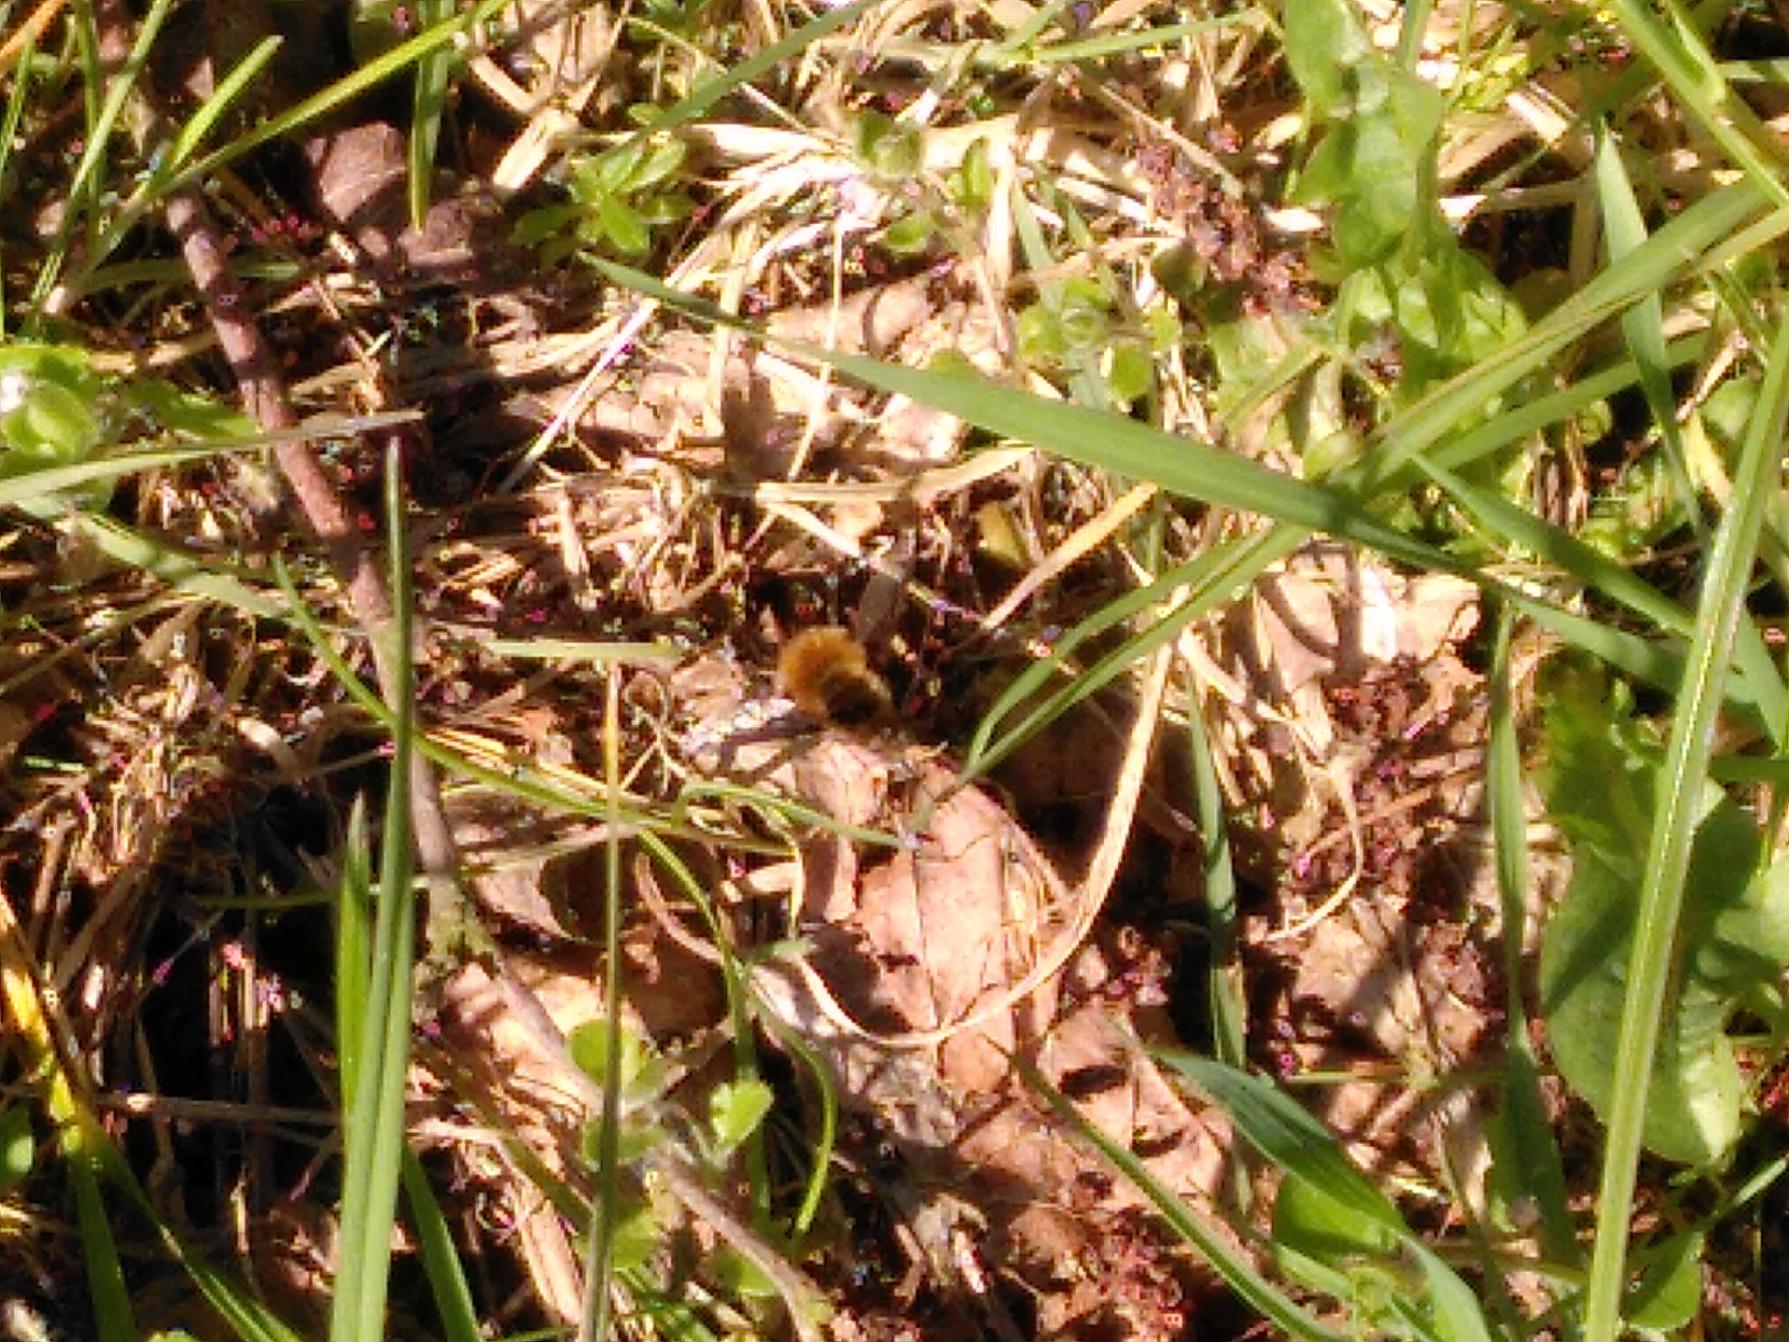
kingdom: Animalia
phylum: Arthropoda
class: Insecta
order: Diptera
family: Bombyliidae
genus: Bombylius
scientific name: Bombylius major
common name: Stor humleflue
